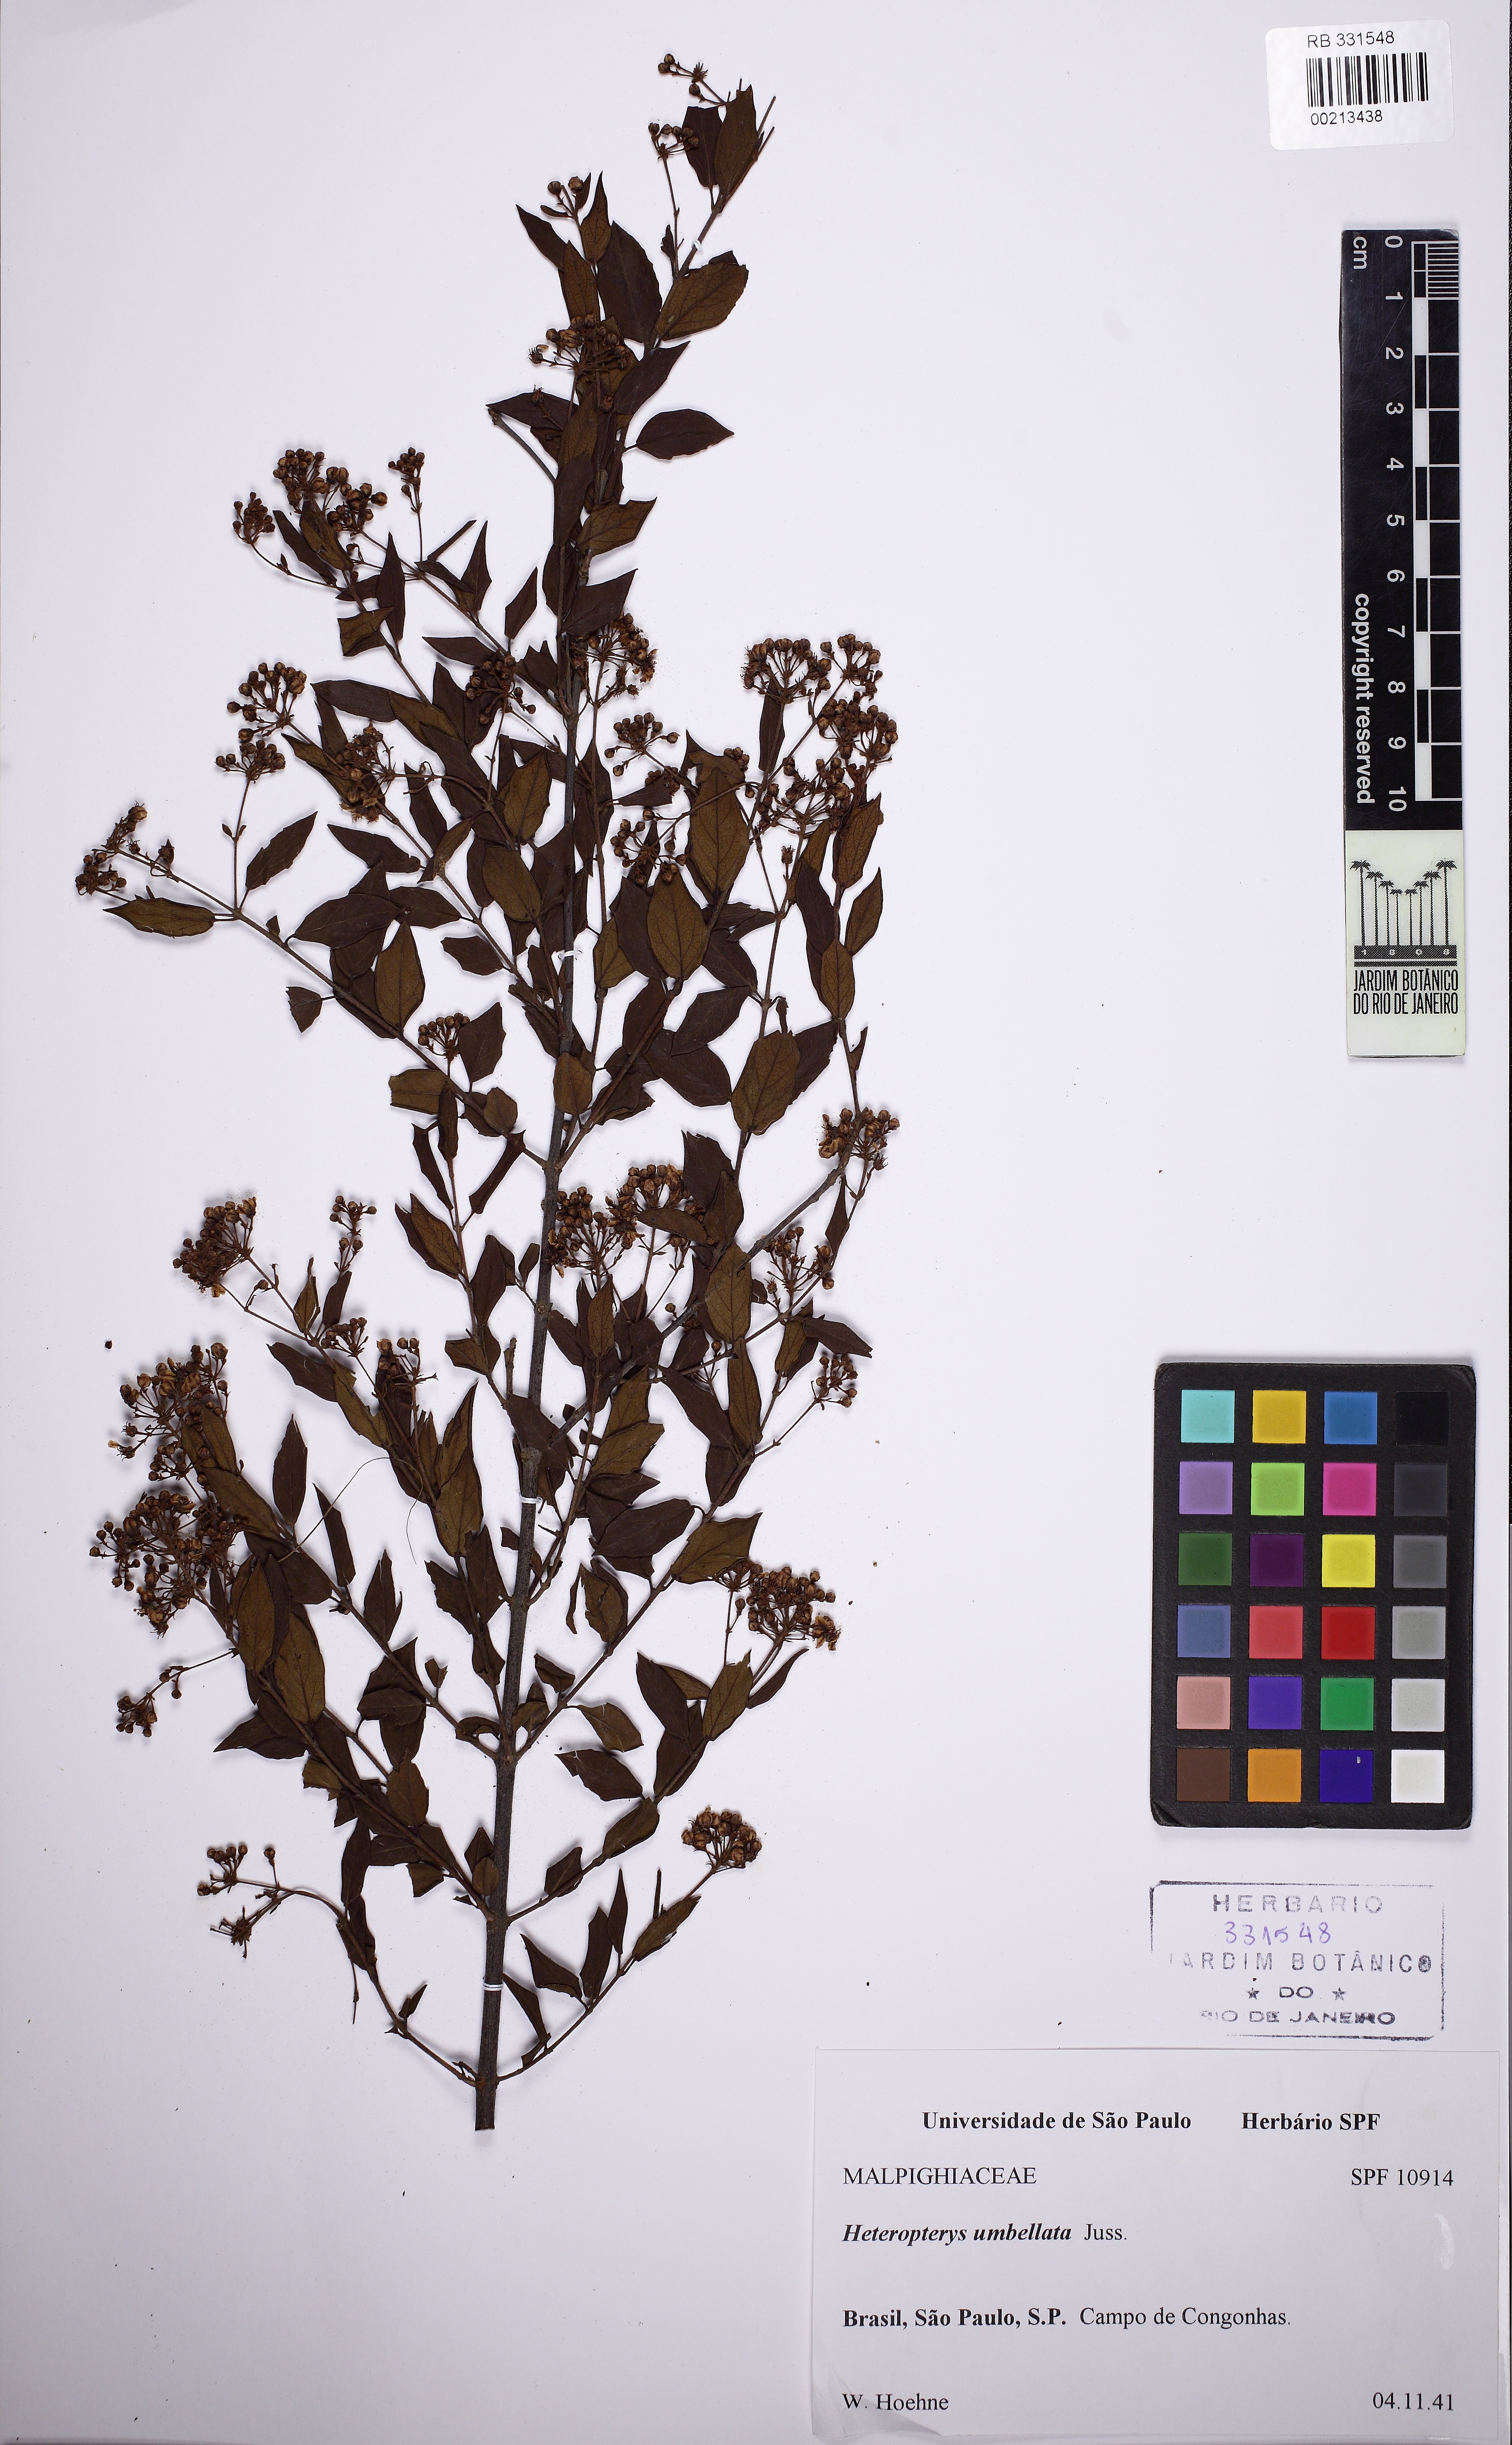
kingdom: Plantae
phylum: Tracheophyta
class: Magnoliopsida
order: Malpighiales
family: Malpighiaceae
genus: Heteropterys
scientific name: Heteropterys umbellata
